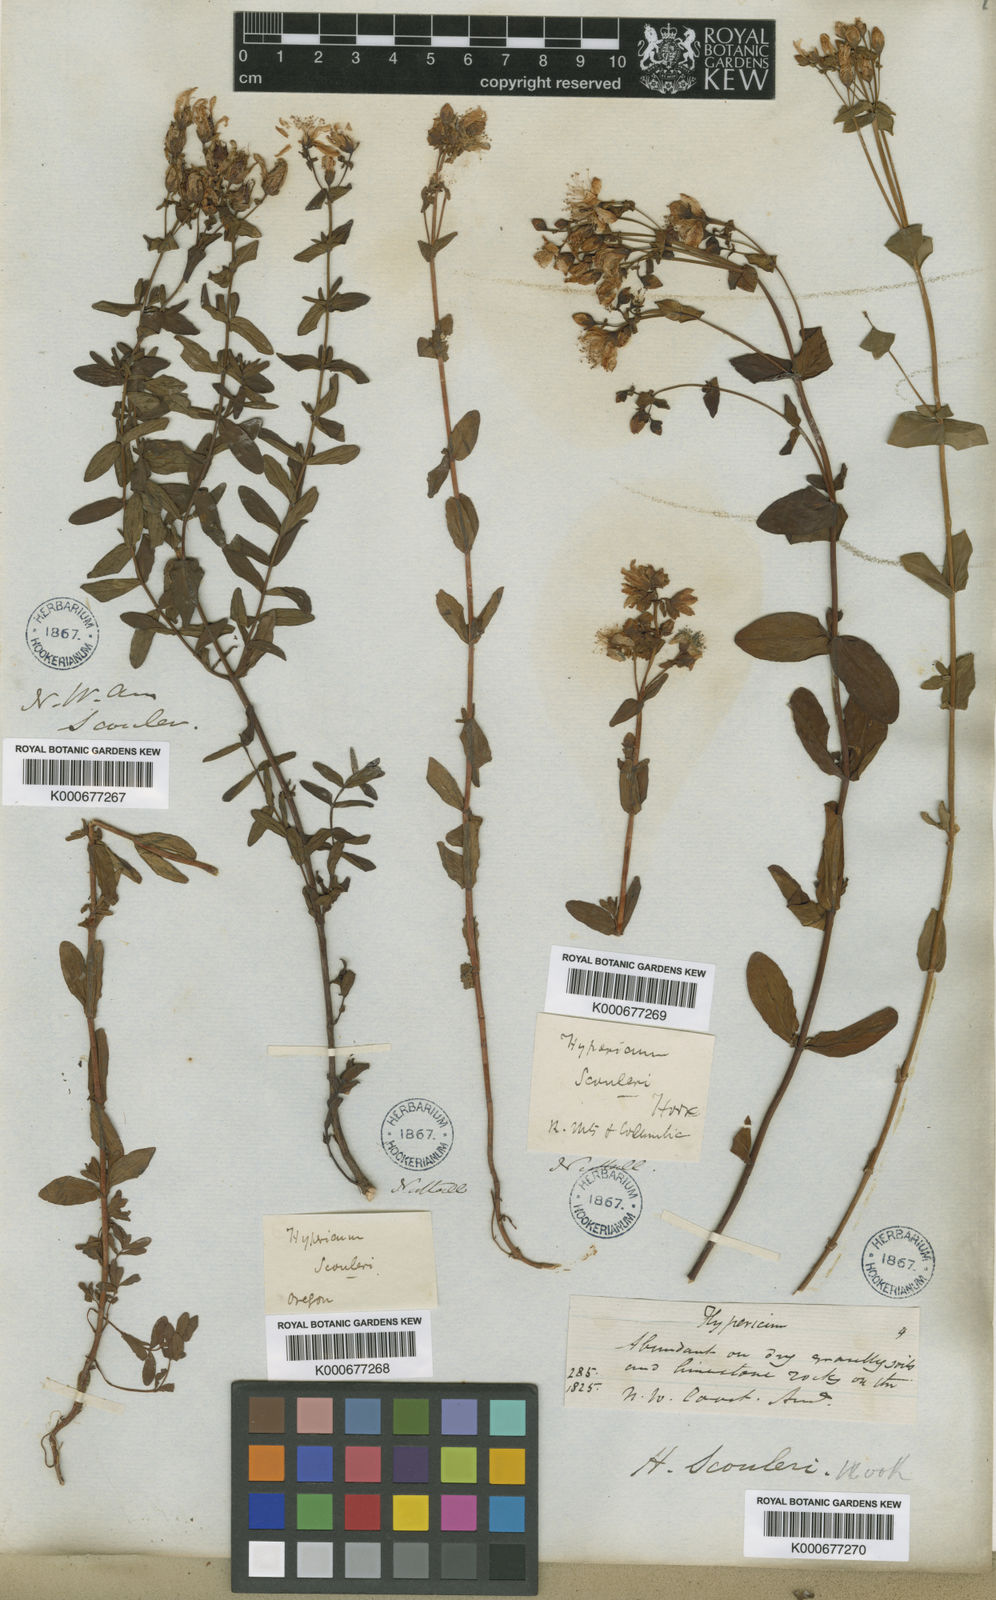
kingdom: Plantae
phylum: Tracheophyta
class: Magnoliopsida
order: Malpighiales
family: Hypericaceae
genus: Hypericum
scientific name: Hypericum scouleri
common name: Scouler's st. john's-wort
